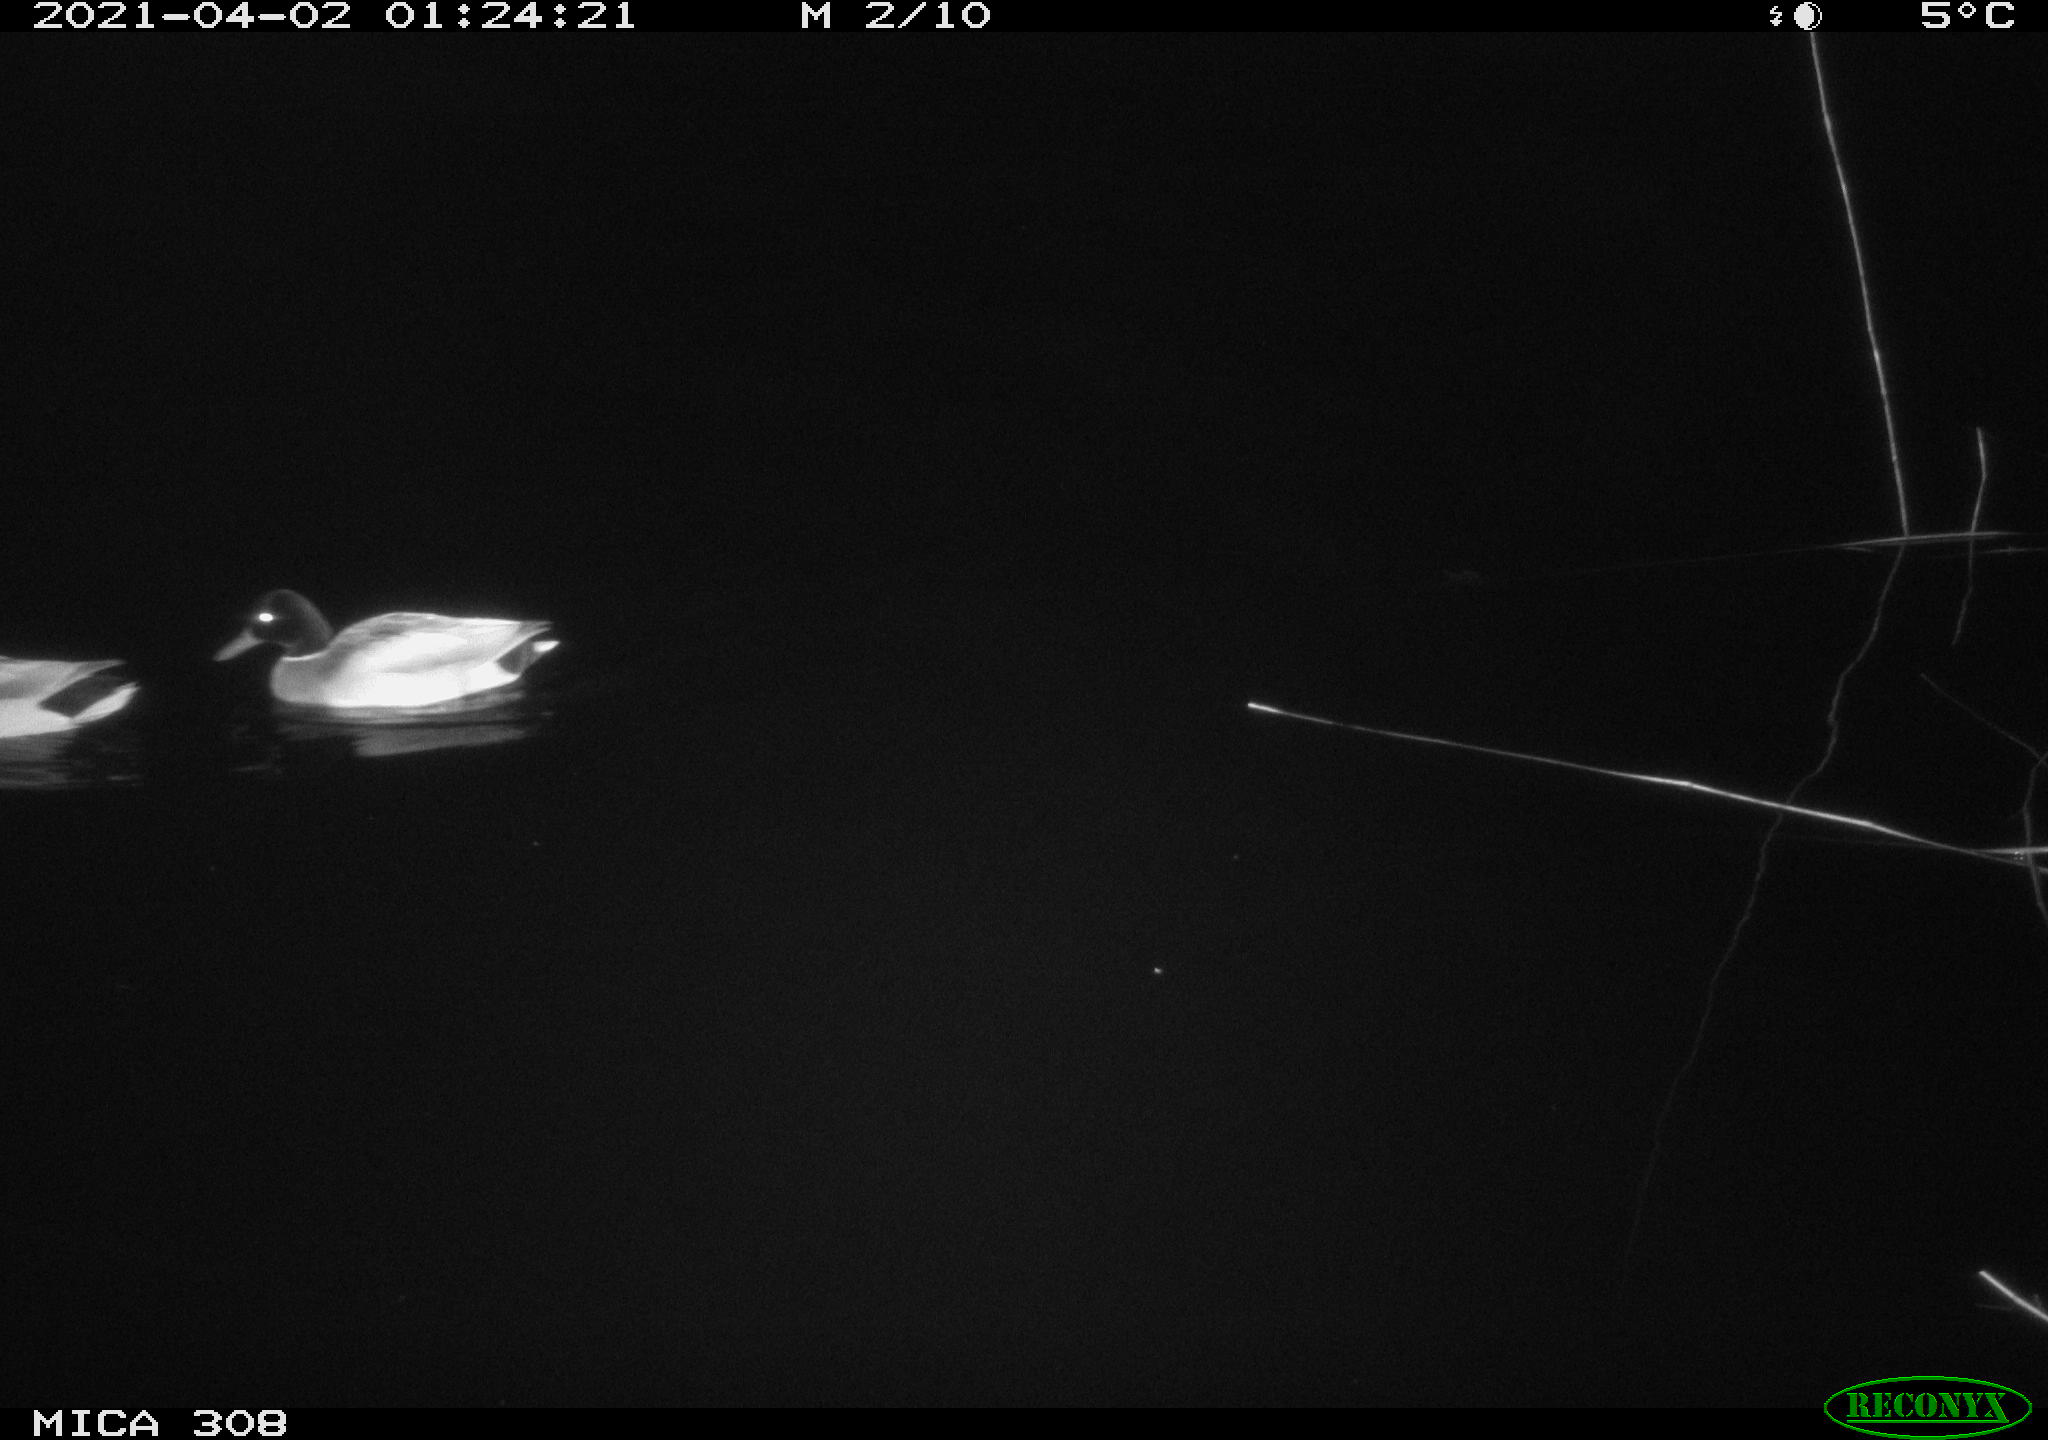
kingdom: Animalia
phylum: Chordata
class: Aves
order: Anseriformes
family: Anatidae
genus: Anas
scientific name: Anas platyrhynchos
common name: Mallard
